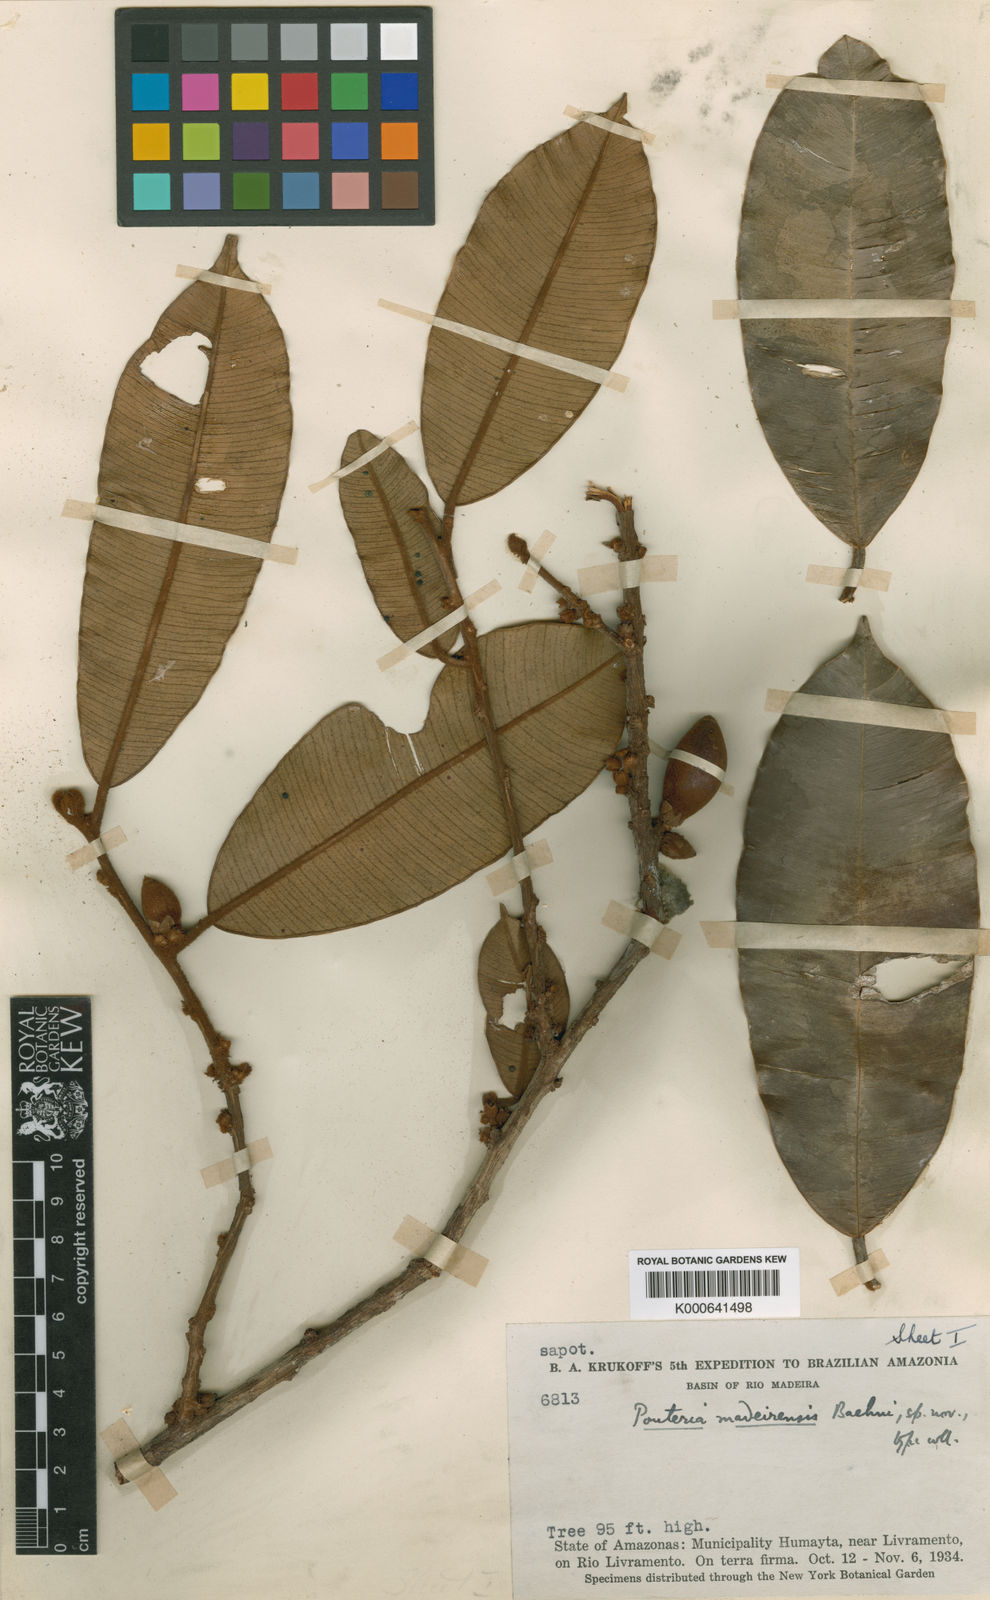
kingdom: Plantae
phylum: Tracheophyta
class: Magnoliopsida
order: Ericales
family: Sapotaceae
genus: Micropholis
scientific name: Micropholis
